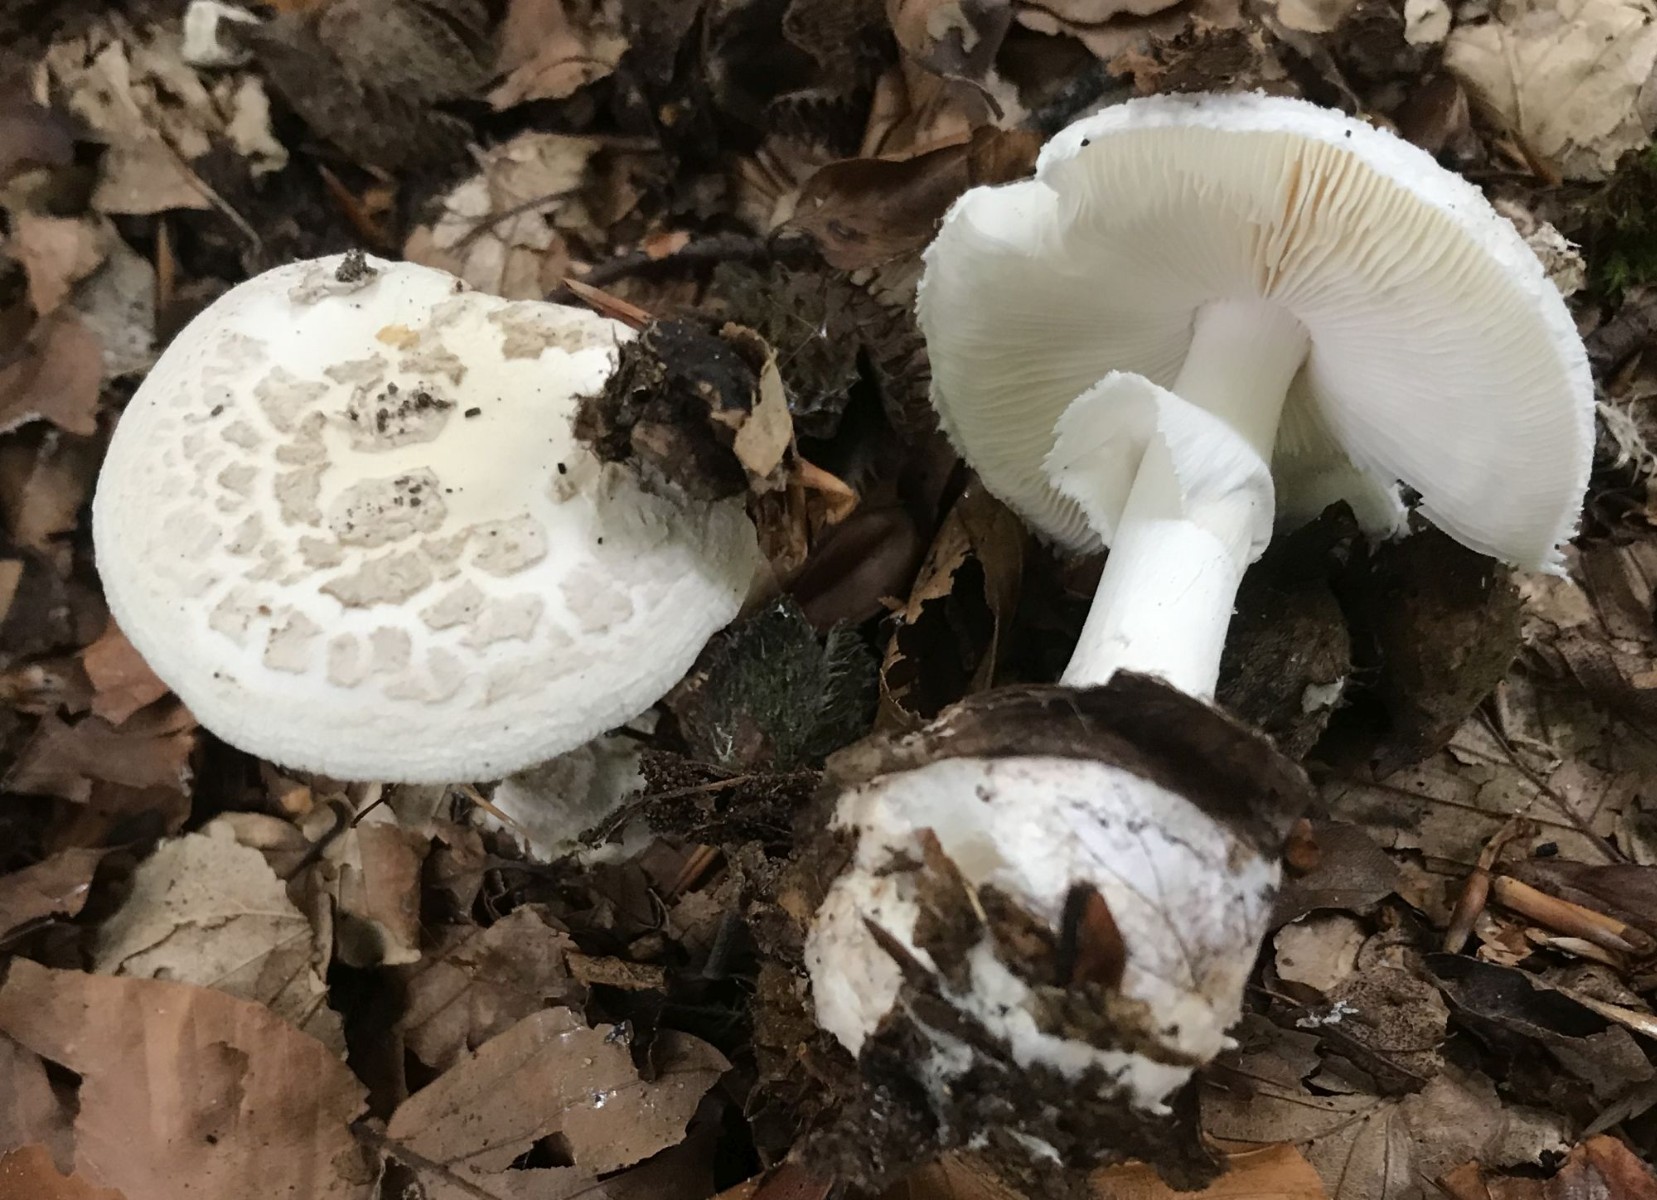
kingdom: Fungi
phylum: Basidiomycota
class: Agaricomycetes
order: Agaricales
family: Amanitaceae
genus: Amanita
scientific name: Amanita citrina
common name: False death-cap
